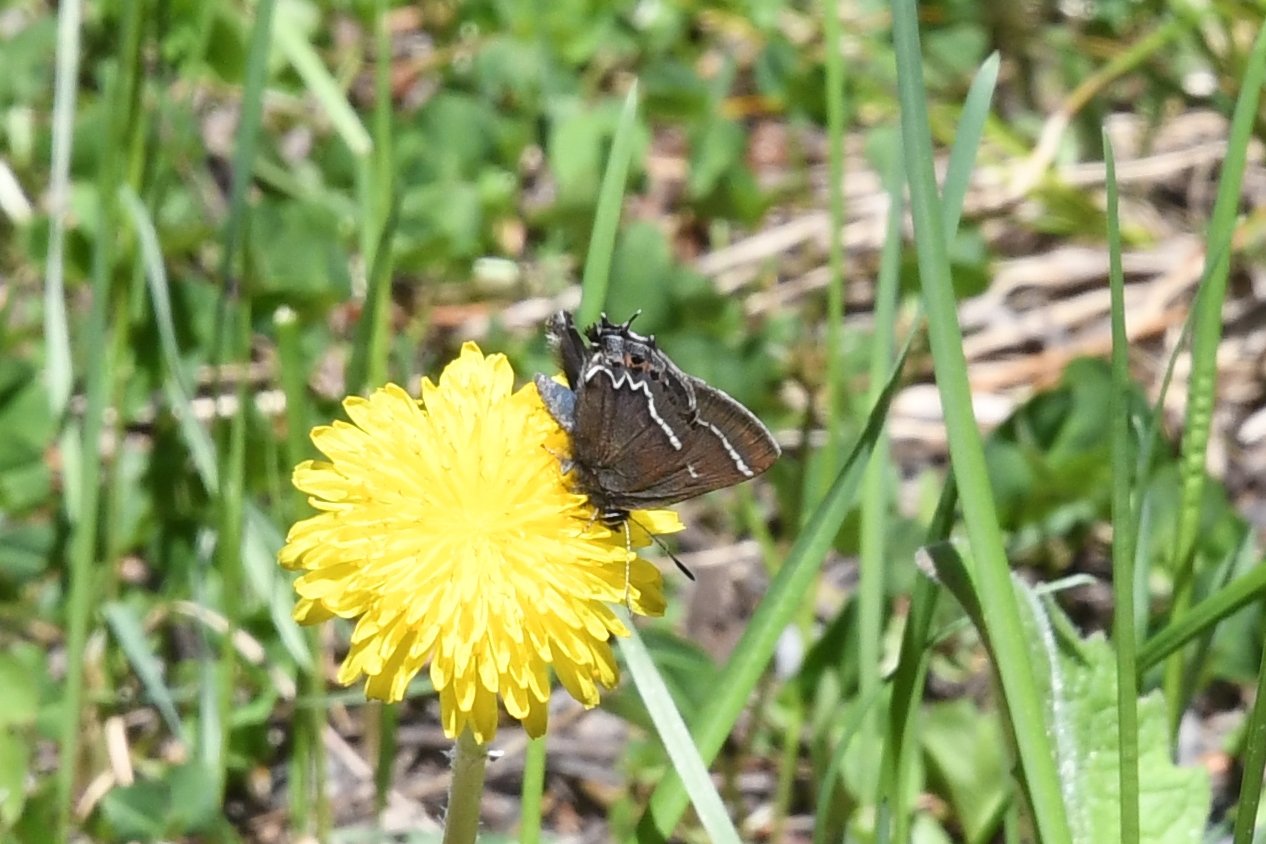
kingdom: Animalia
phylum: Arthropoda
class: Insecta
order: Lepidoptera
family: Lycaenidae
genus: Mitoura
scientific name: Mitoura spinetorum
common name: Thicket Hairstreak
